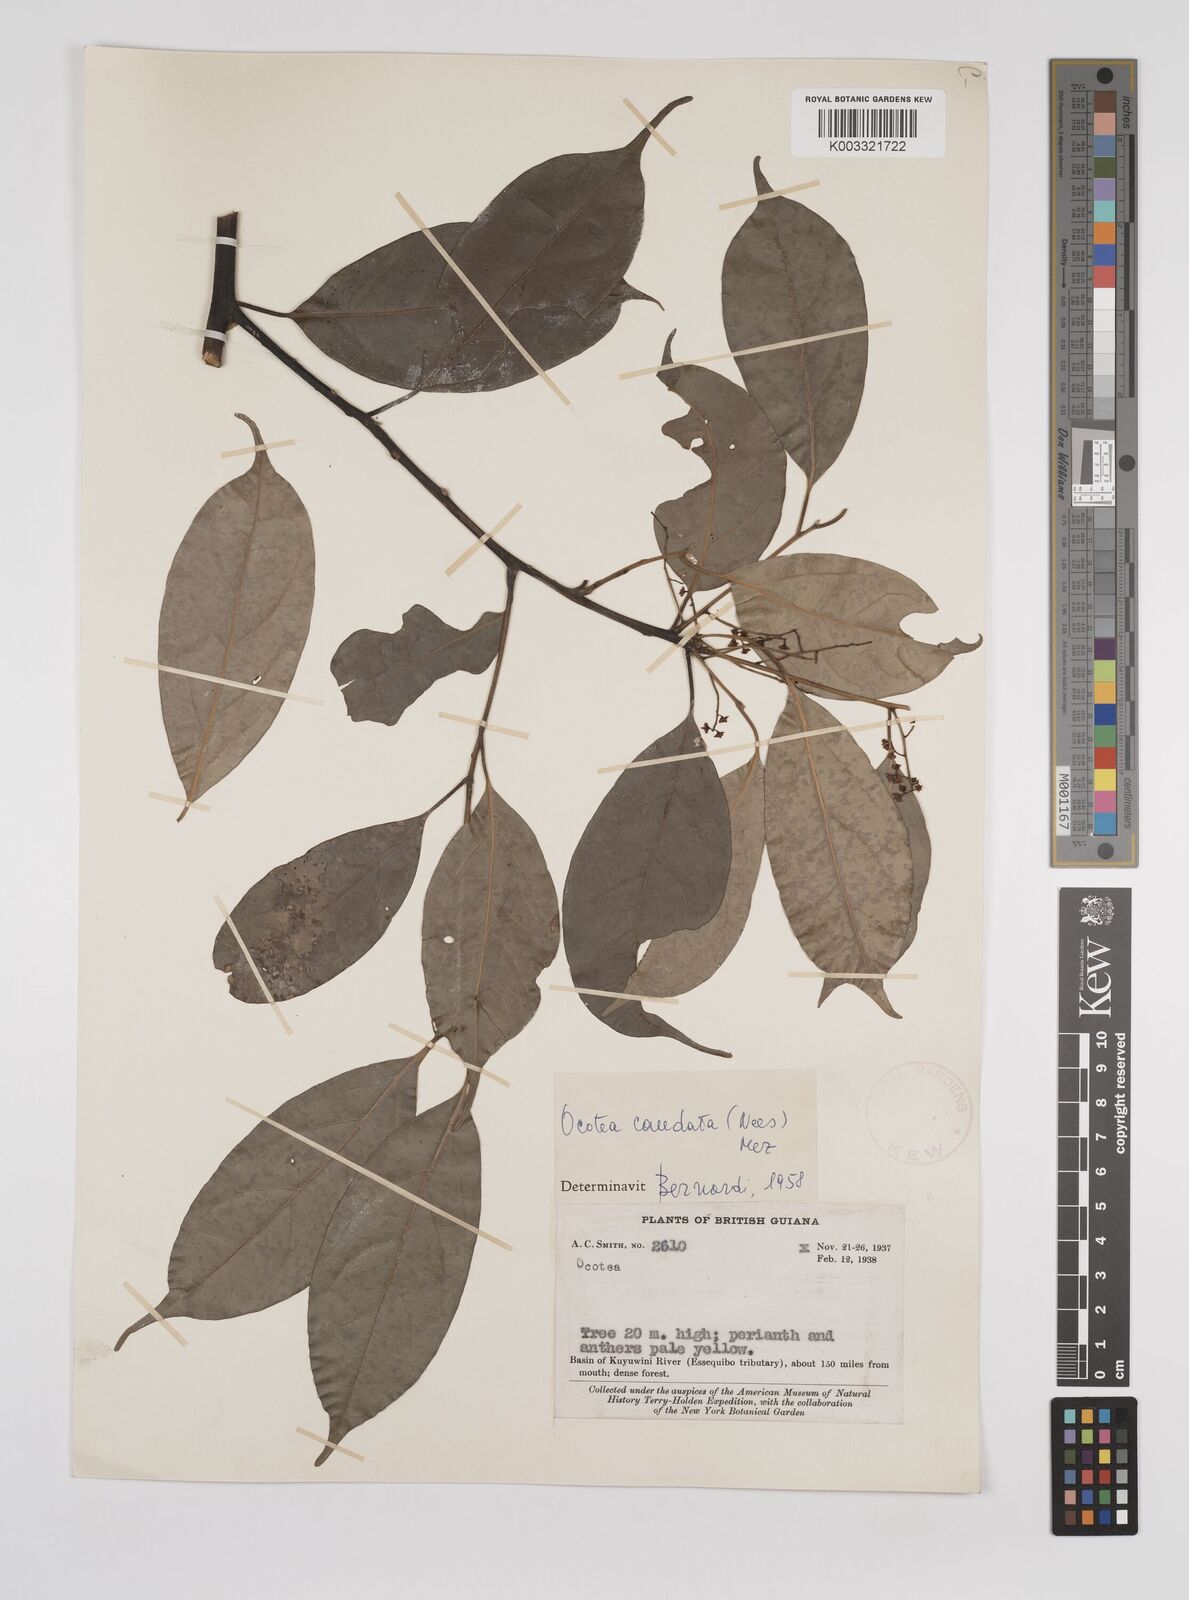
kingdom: Plantae
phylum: Tracheophyta
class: Magnoliopsida
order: Laurales
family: Lauraceae
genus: Ocotea
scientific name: Ocotea leptobotra
